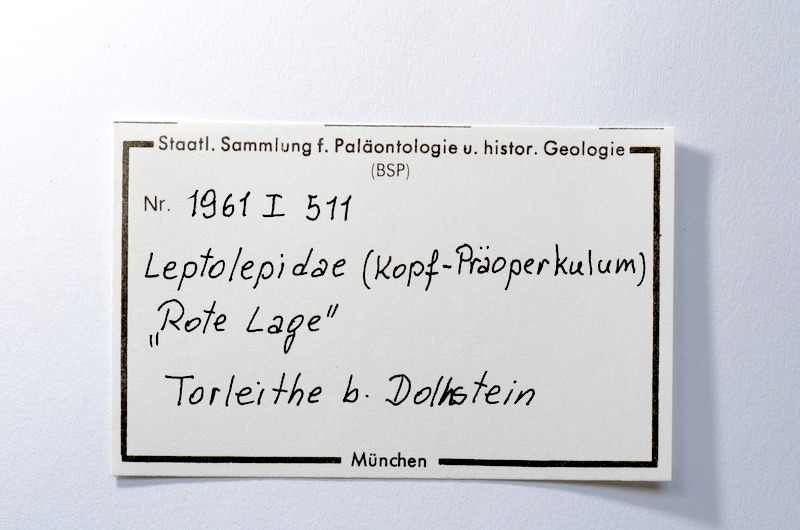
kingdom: Animalia
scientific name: Animalia
